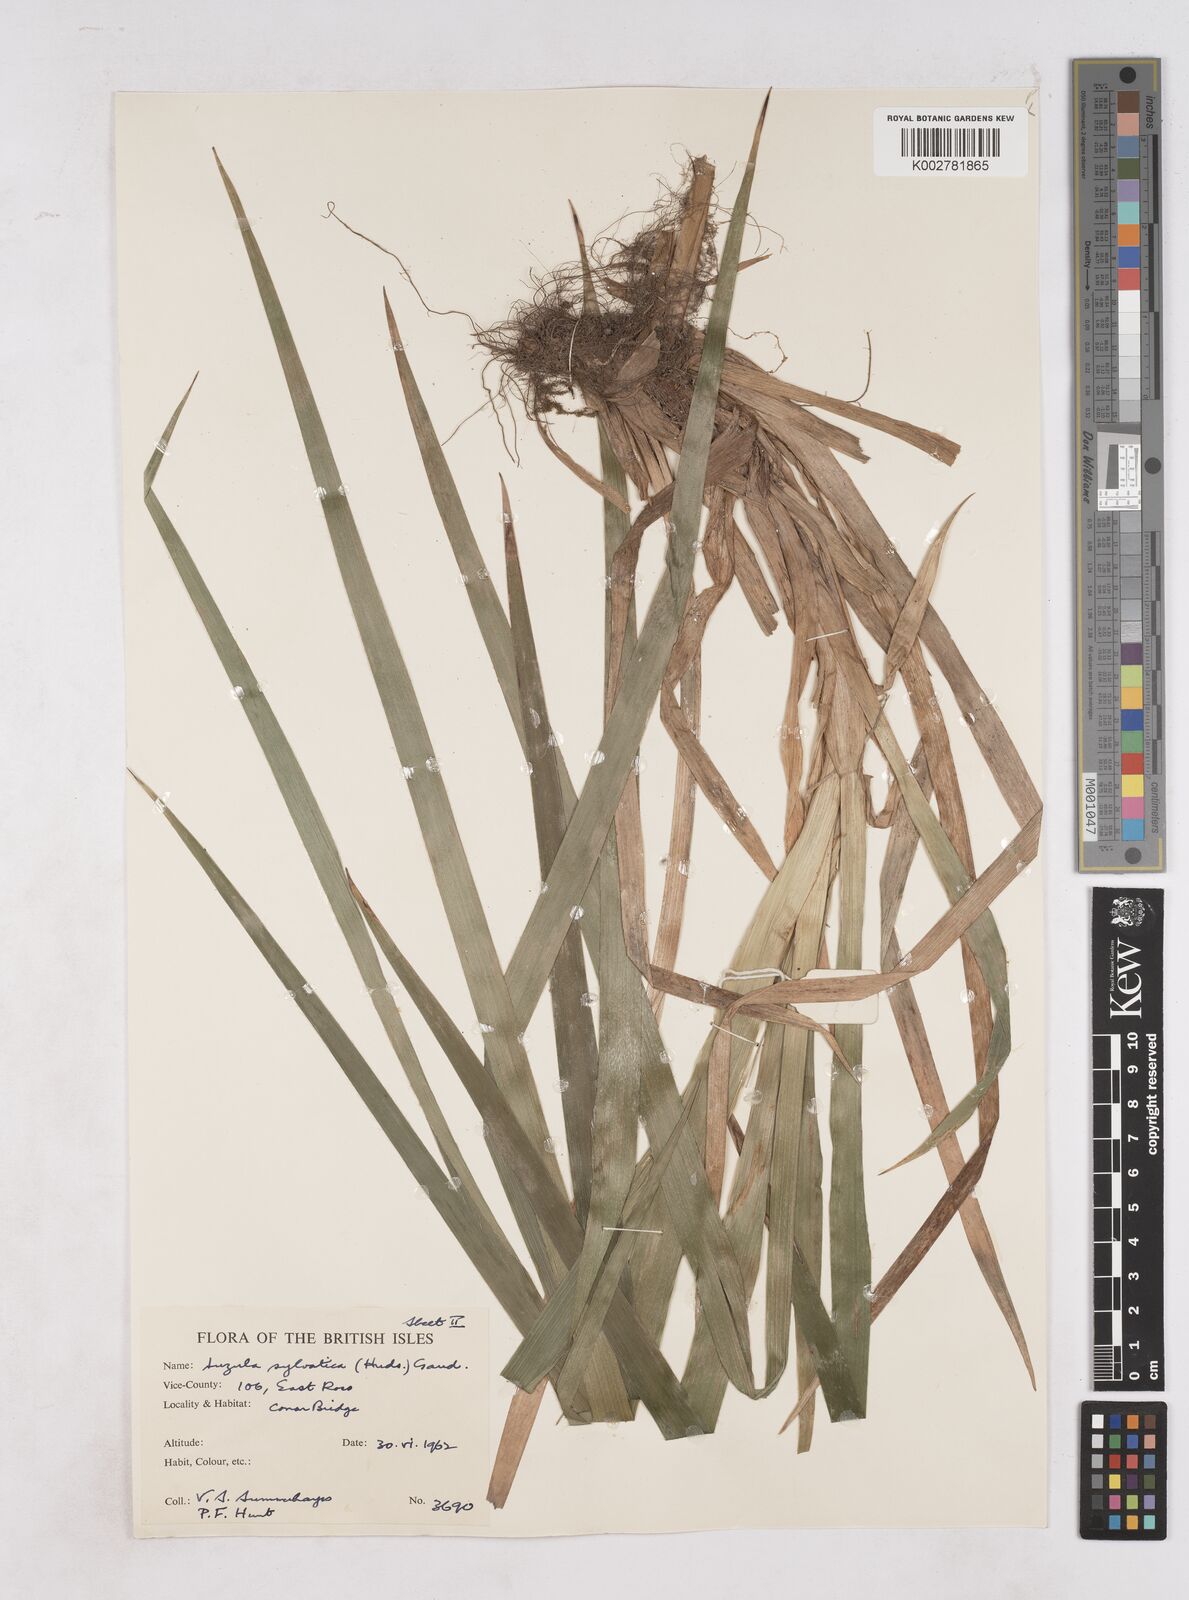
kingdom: Plantae
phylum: Tracheophyta
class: Liliopsida
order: Poales
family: Juncaceae
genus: Luzula
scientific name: Luzula sylvatica
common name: Great wood-rush
